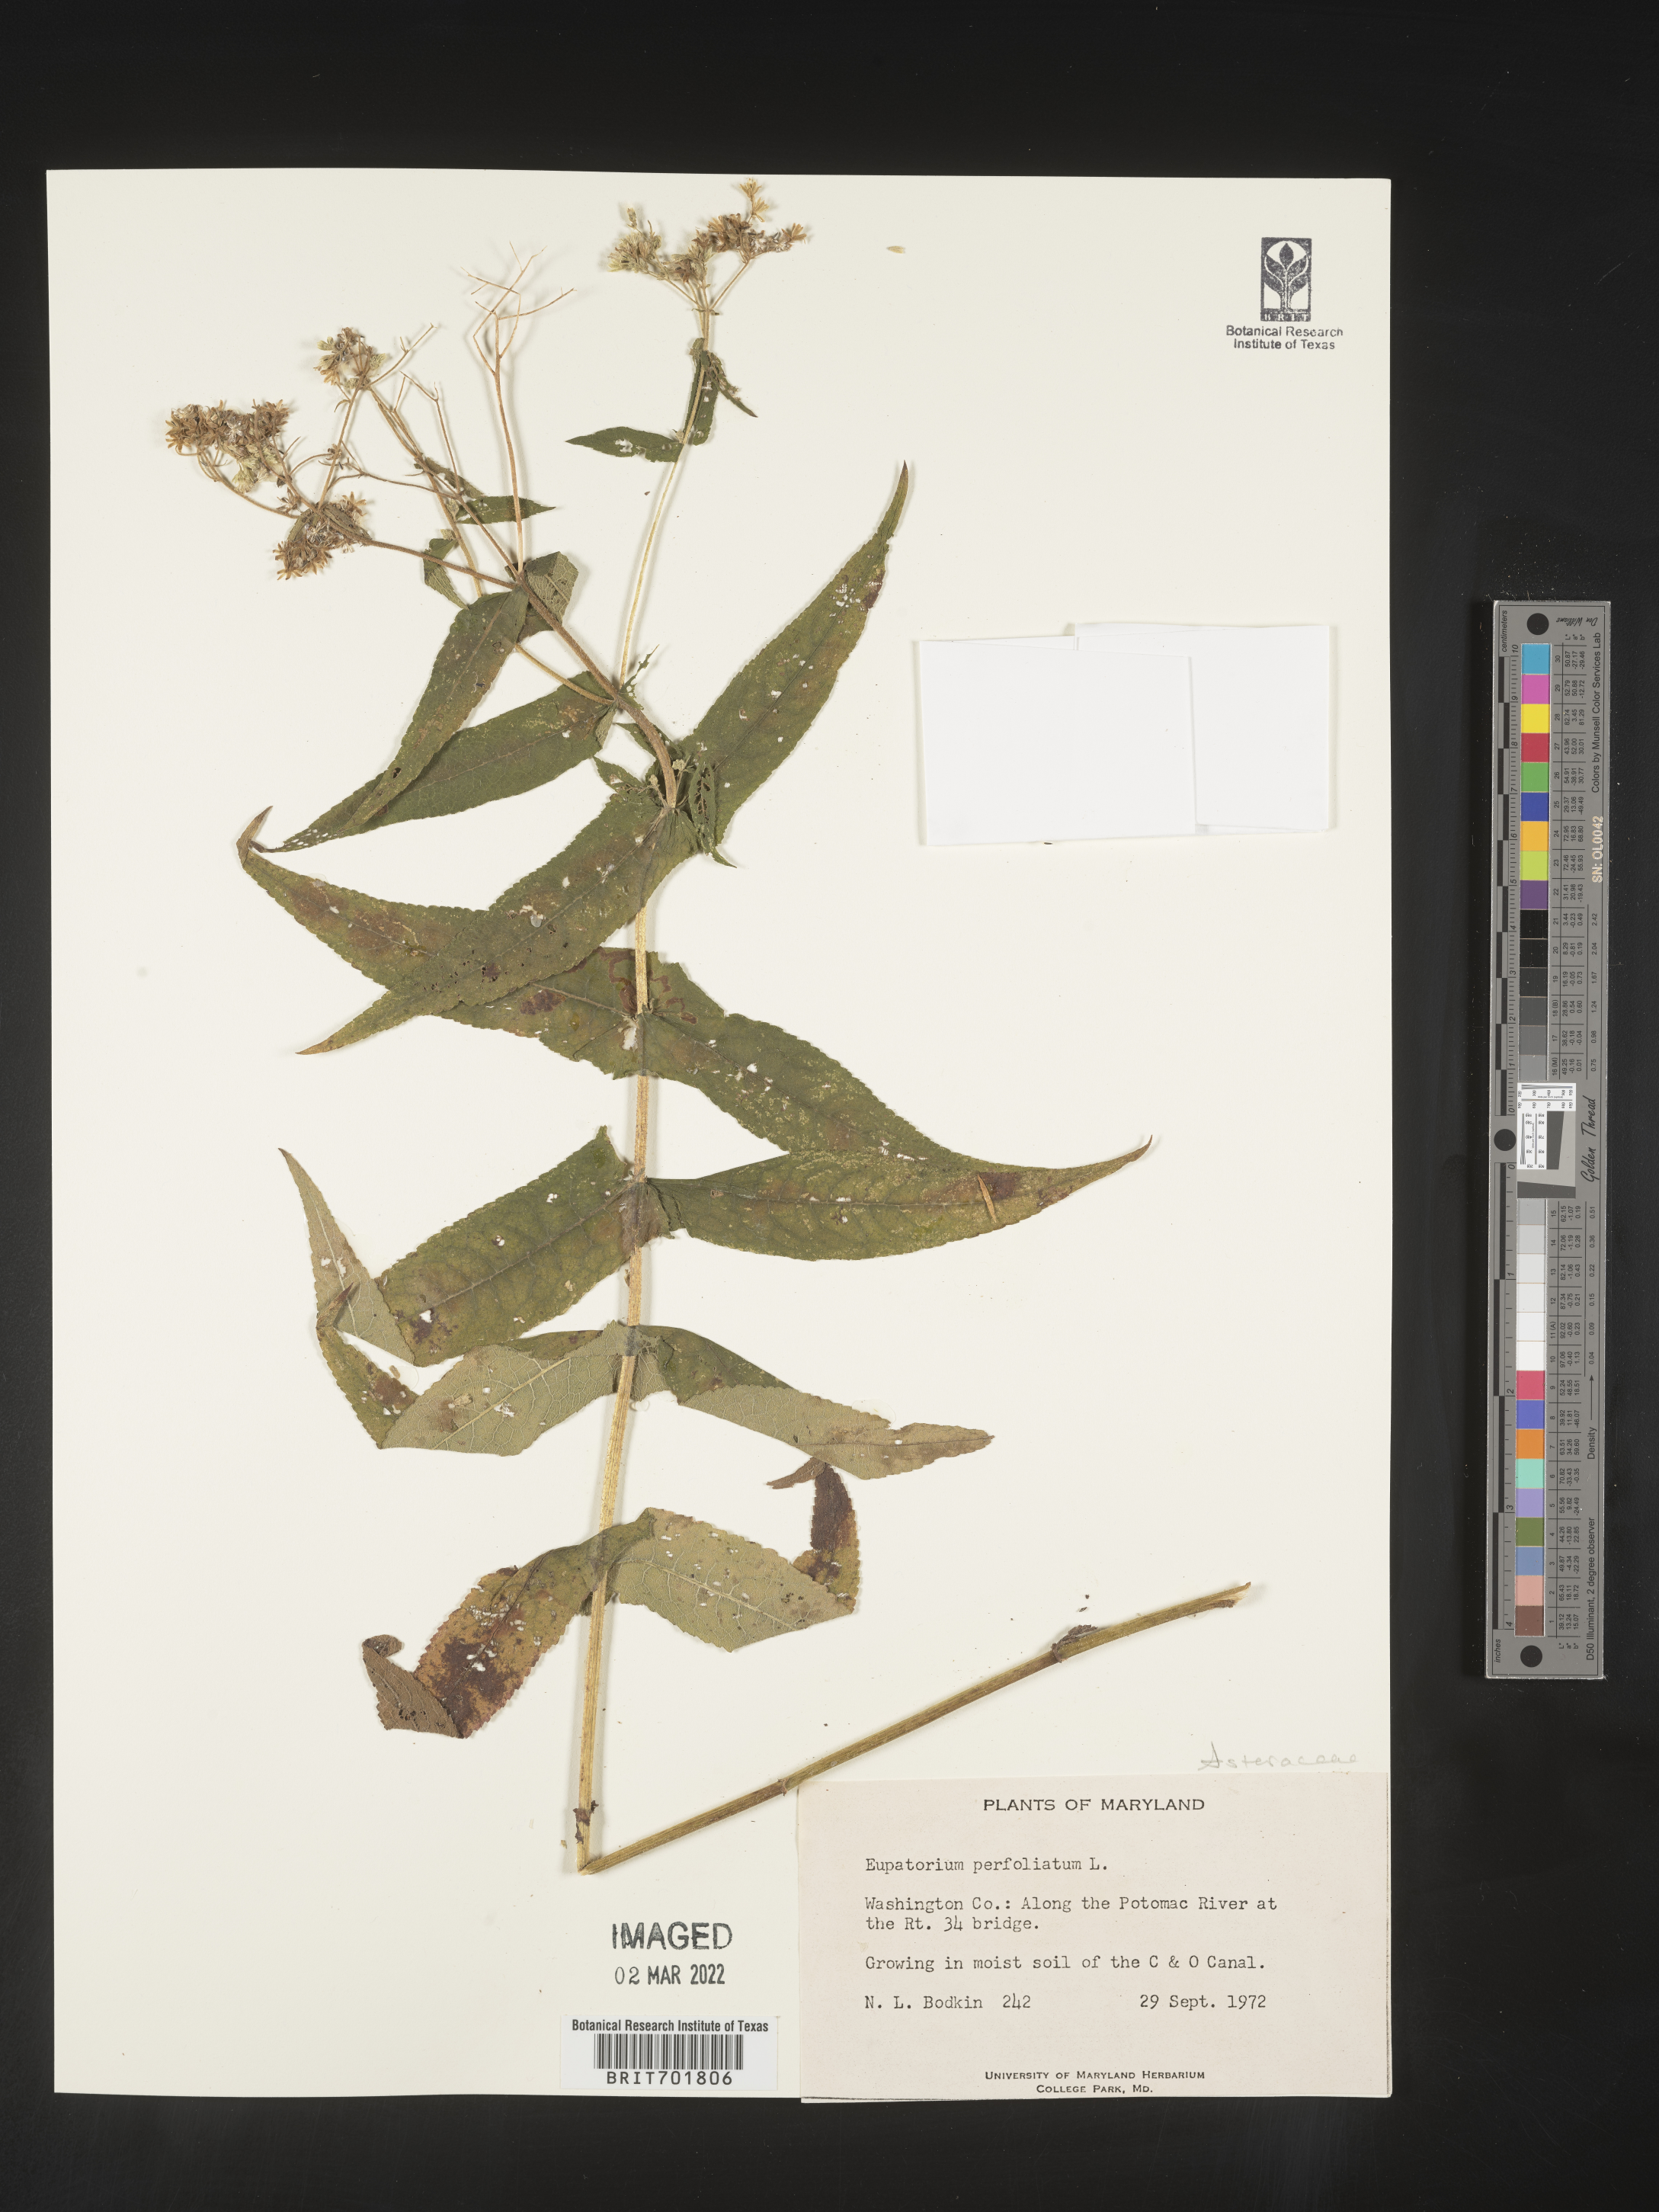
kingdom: Plantae
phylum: Tracheophyta
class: Magnoliopsida
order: Asterales
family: Asteraceae
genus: Eupatorium
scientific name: Eupatorium perfoliatum
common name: Boneset
